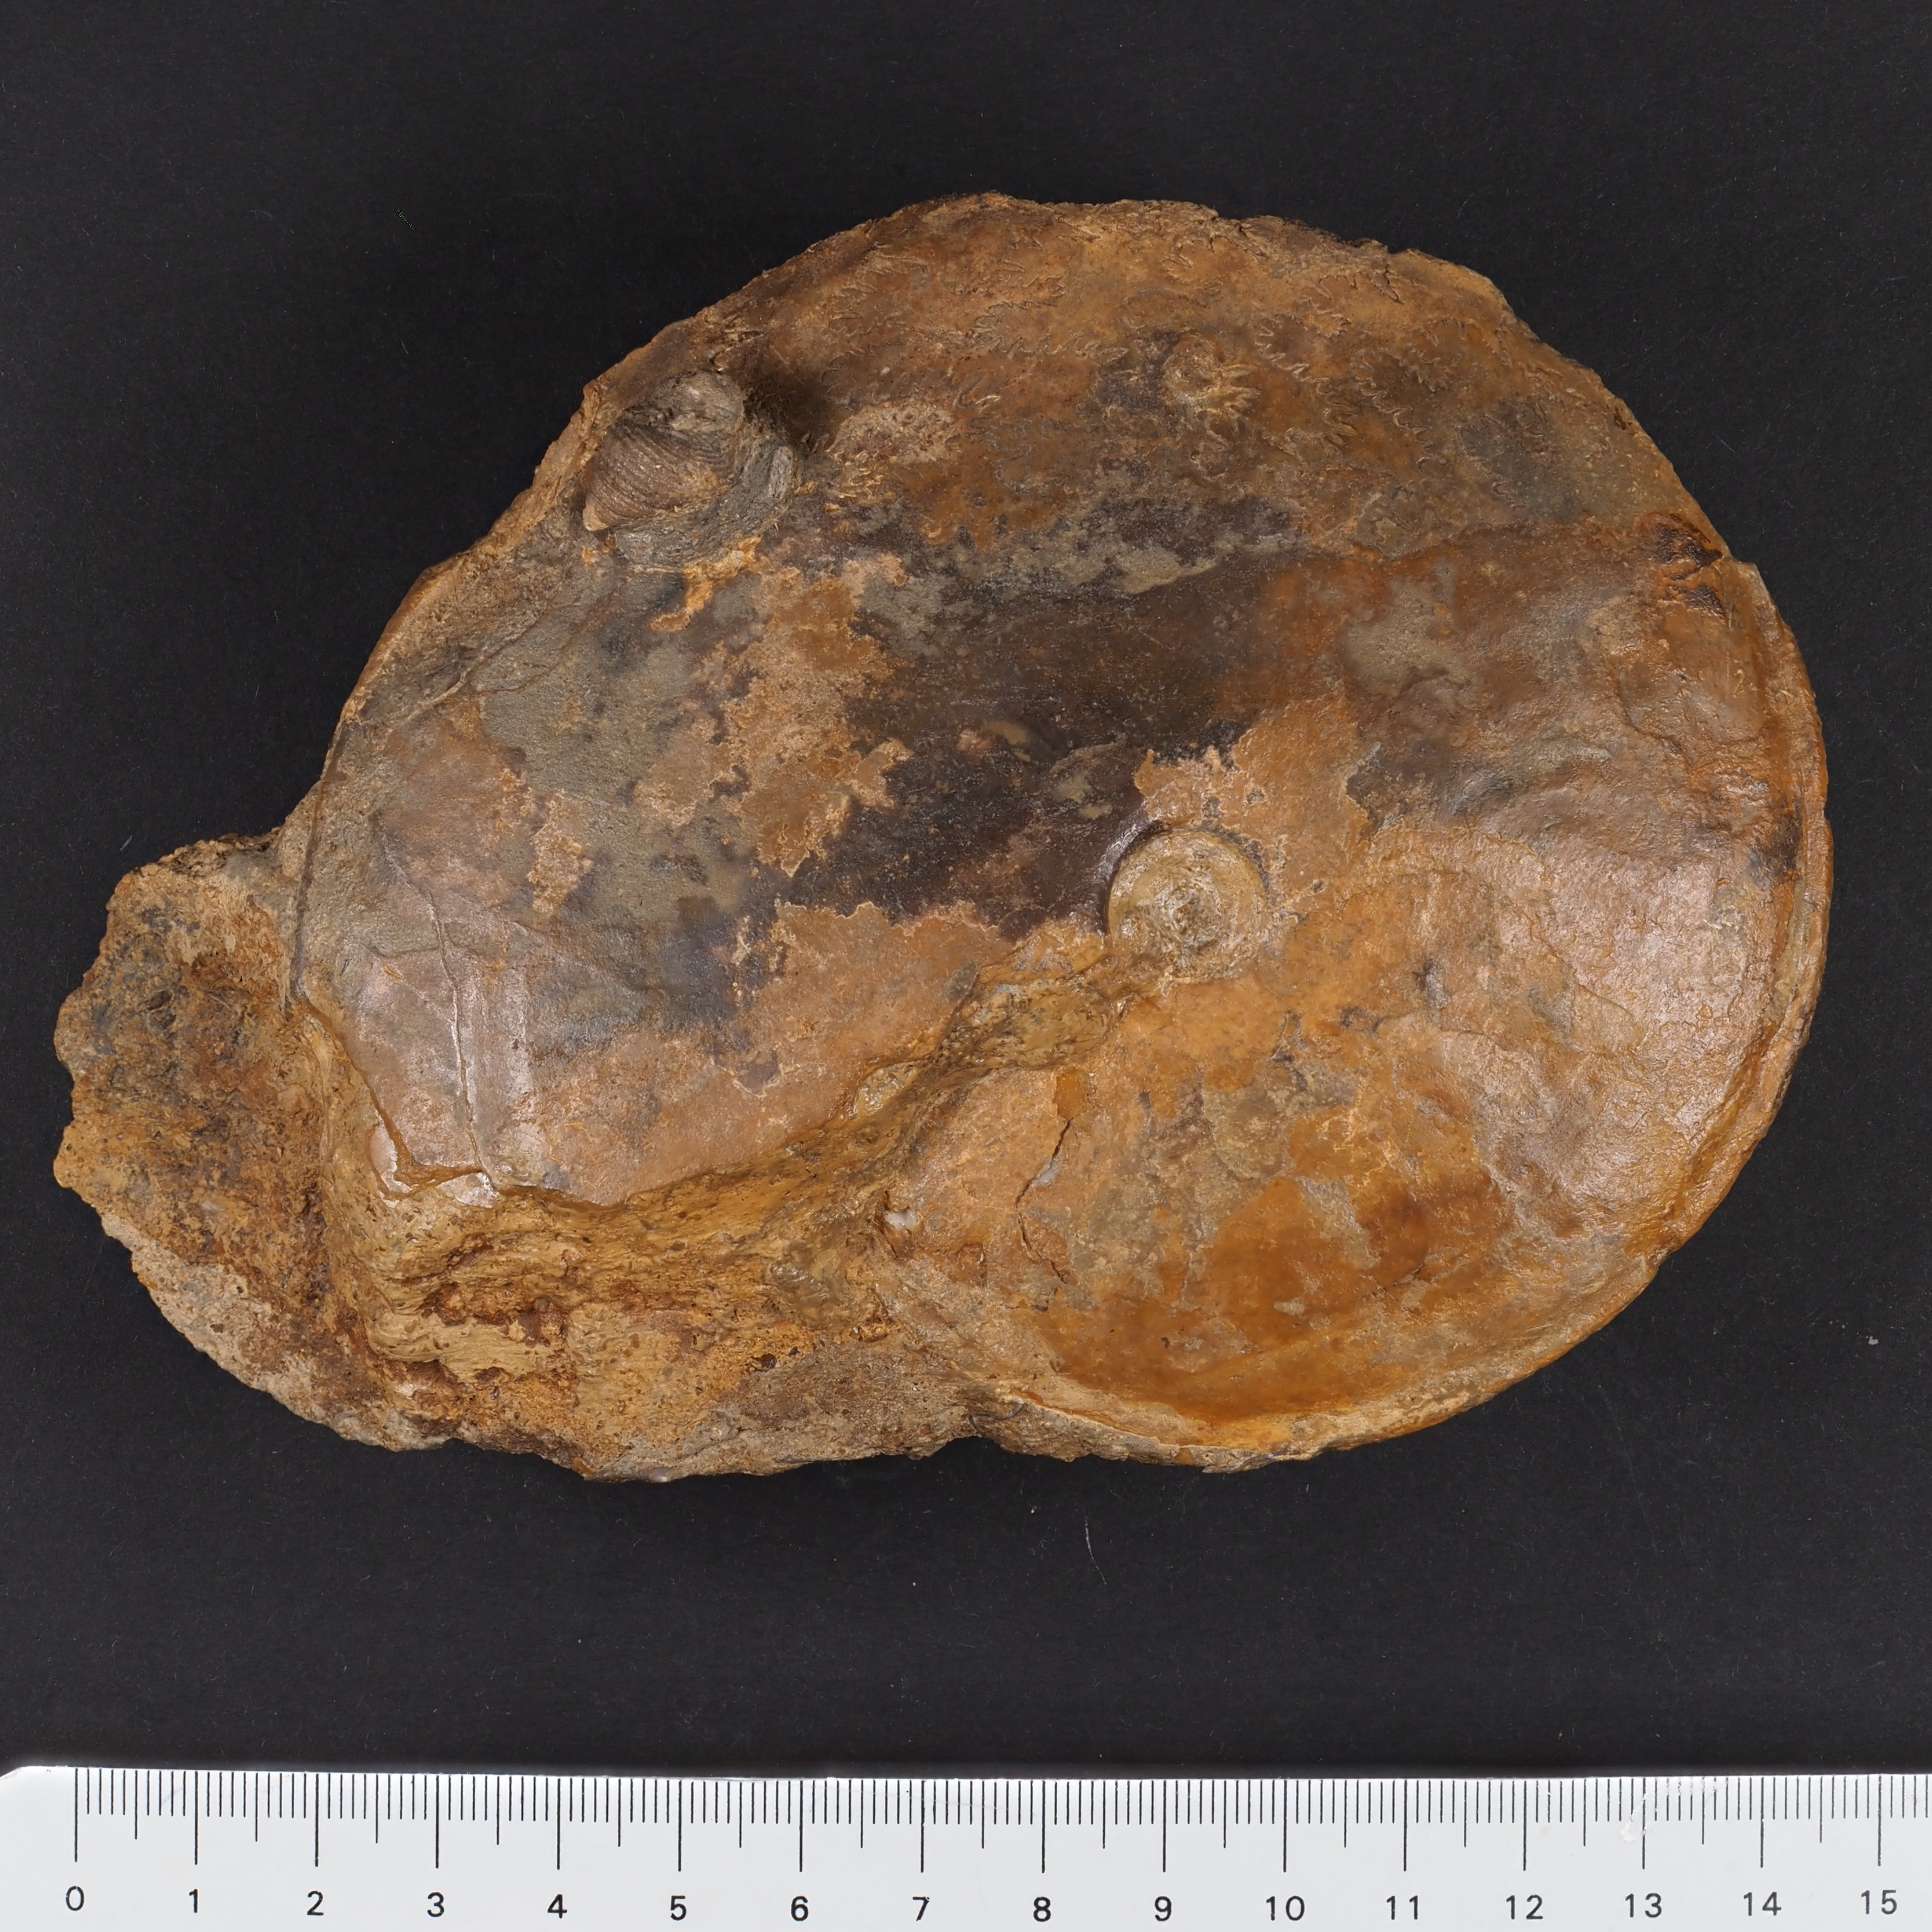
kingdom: Animalia
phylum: Mollusca
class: Cephalopoda
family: Graphoceratidae
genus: Hyperlioceras
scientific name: Hyperlioceras
